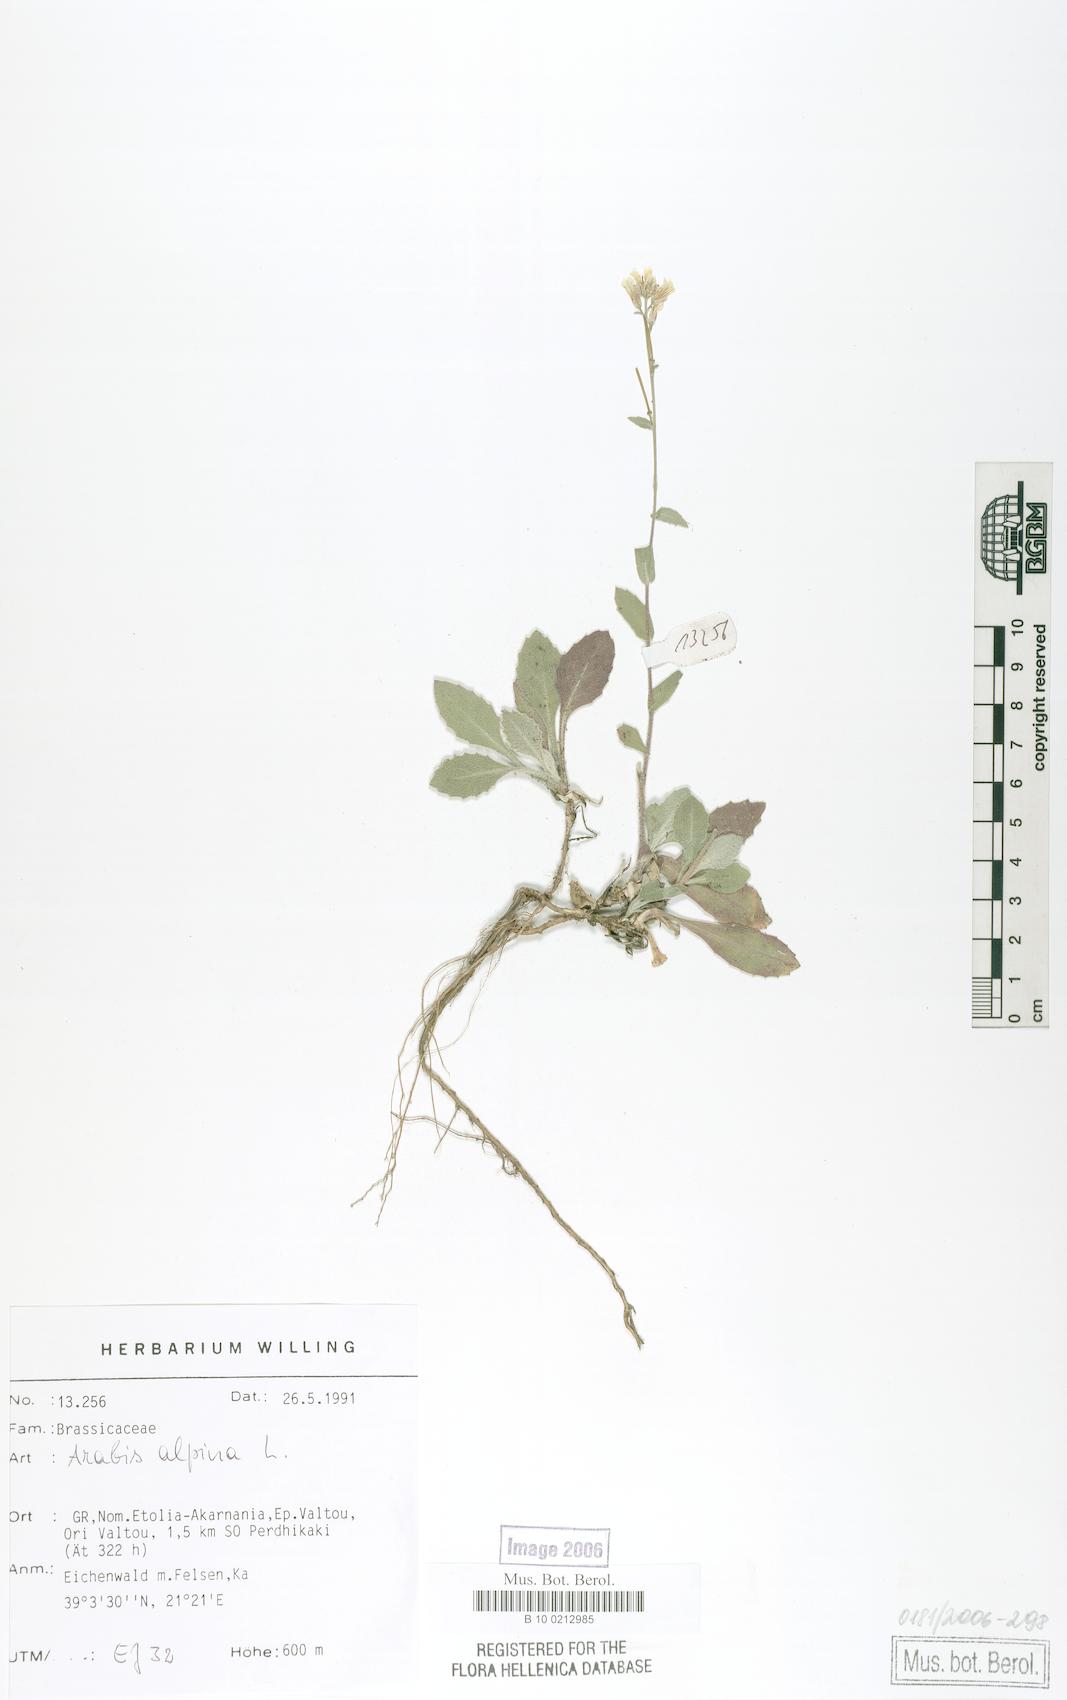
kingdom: Plantae
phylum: Tracheophyta
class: Magnoliopsida
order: Brassicales
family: Brassicaceae
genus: Arabis
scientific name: Arabis alpina
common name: Alpine rock-cress
